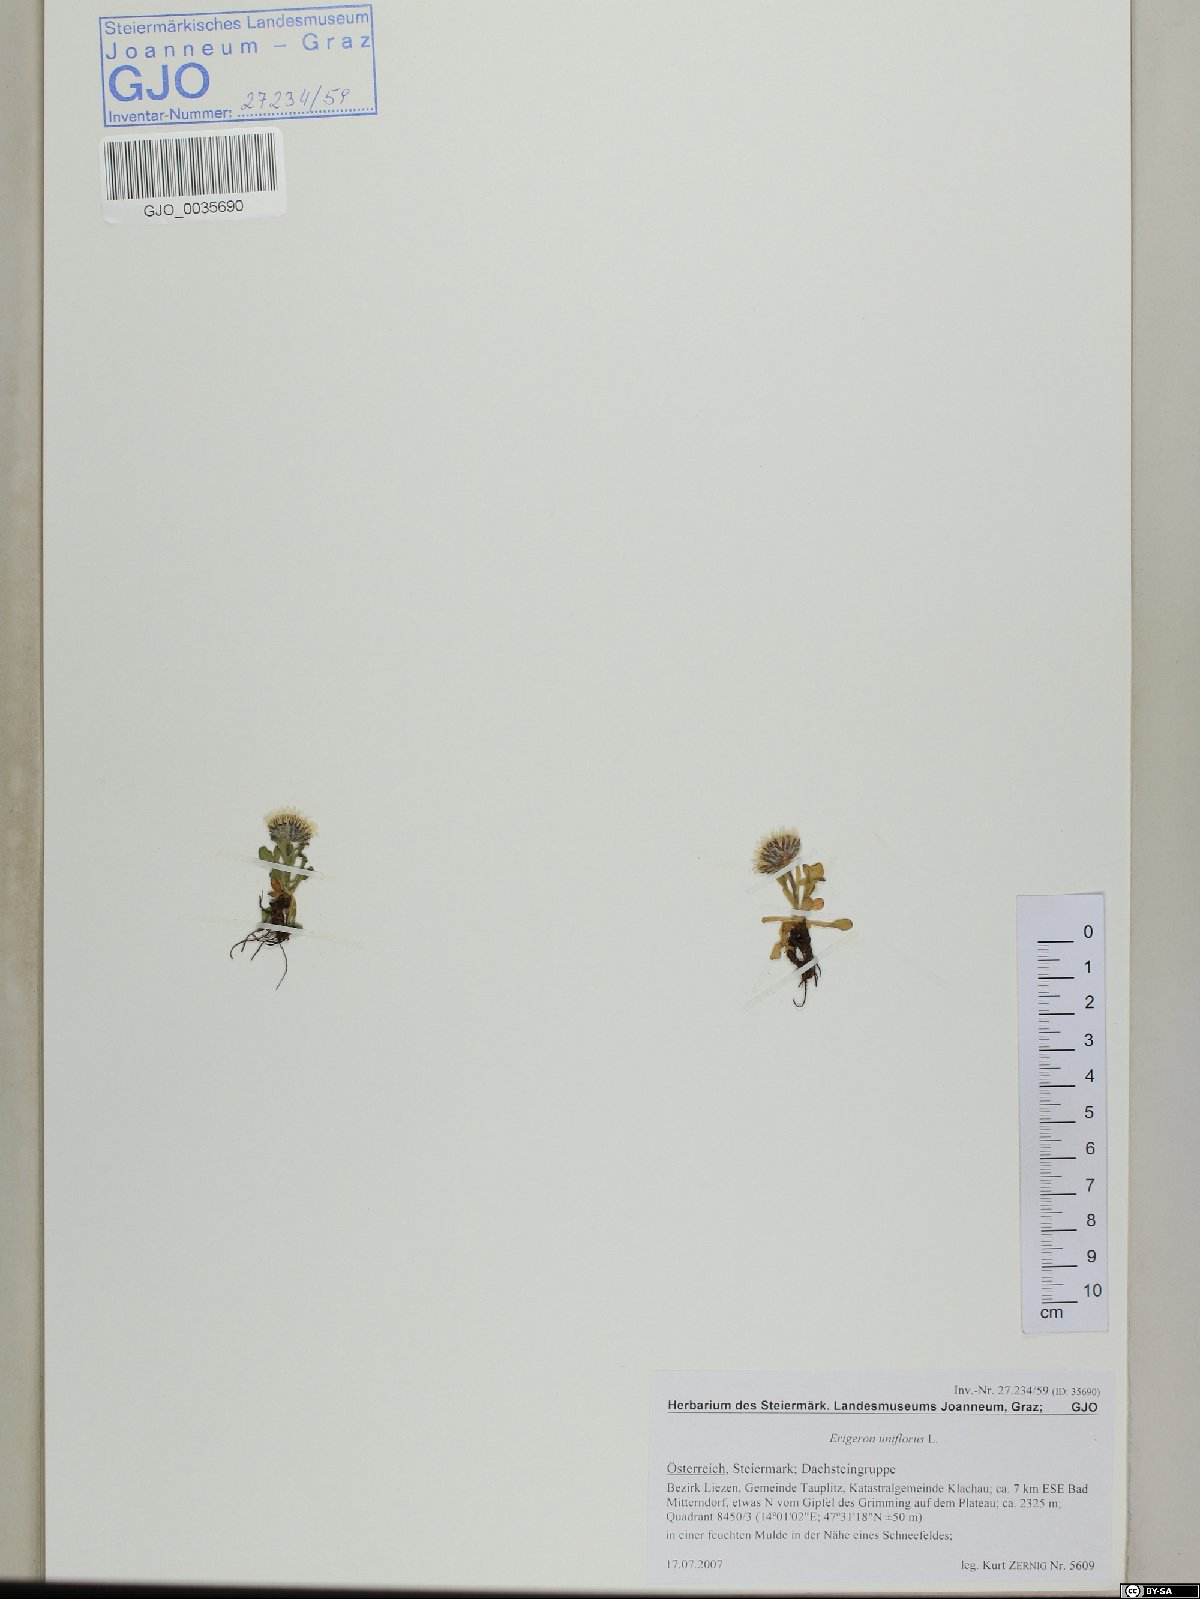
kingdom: Plantae
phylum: Tracheophyta
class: Magnoliopsida
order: Asterales
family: Asteraceae
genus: Erigeron
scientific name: Erigeron uniflorus
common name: Northern daisy
